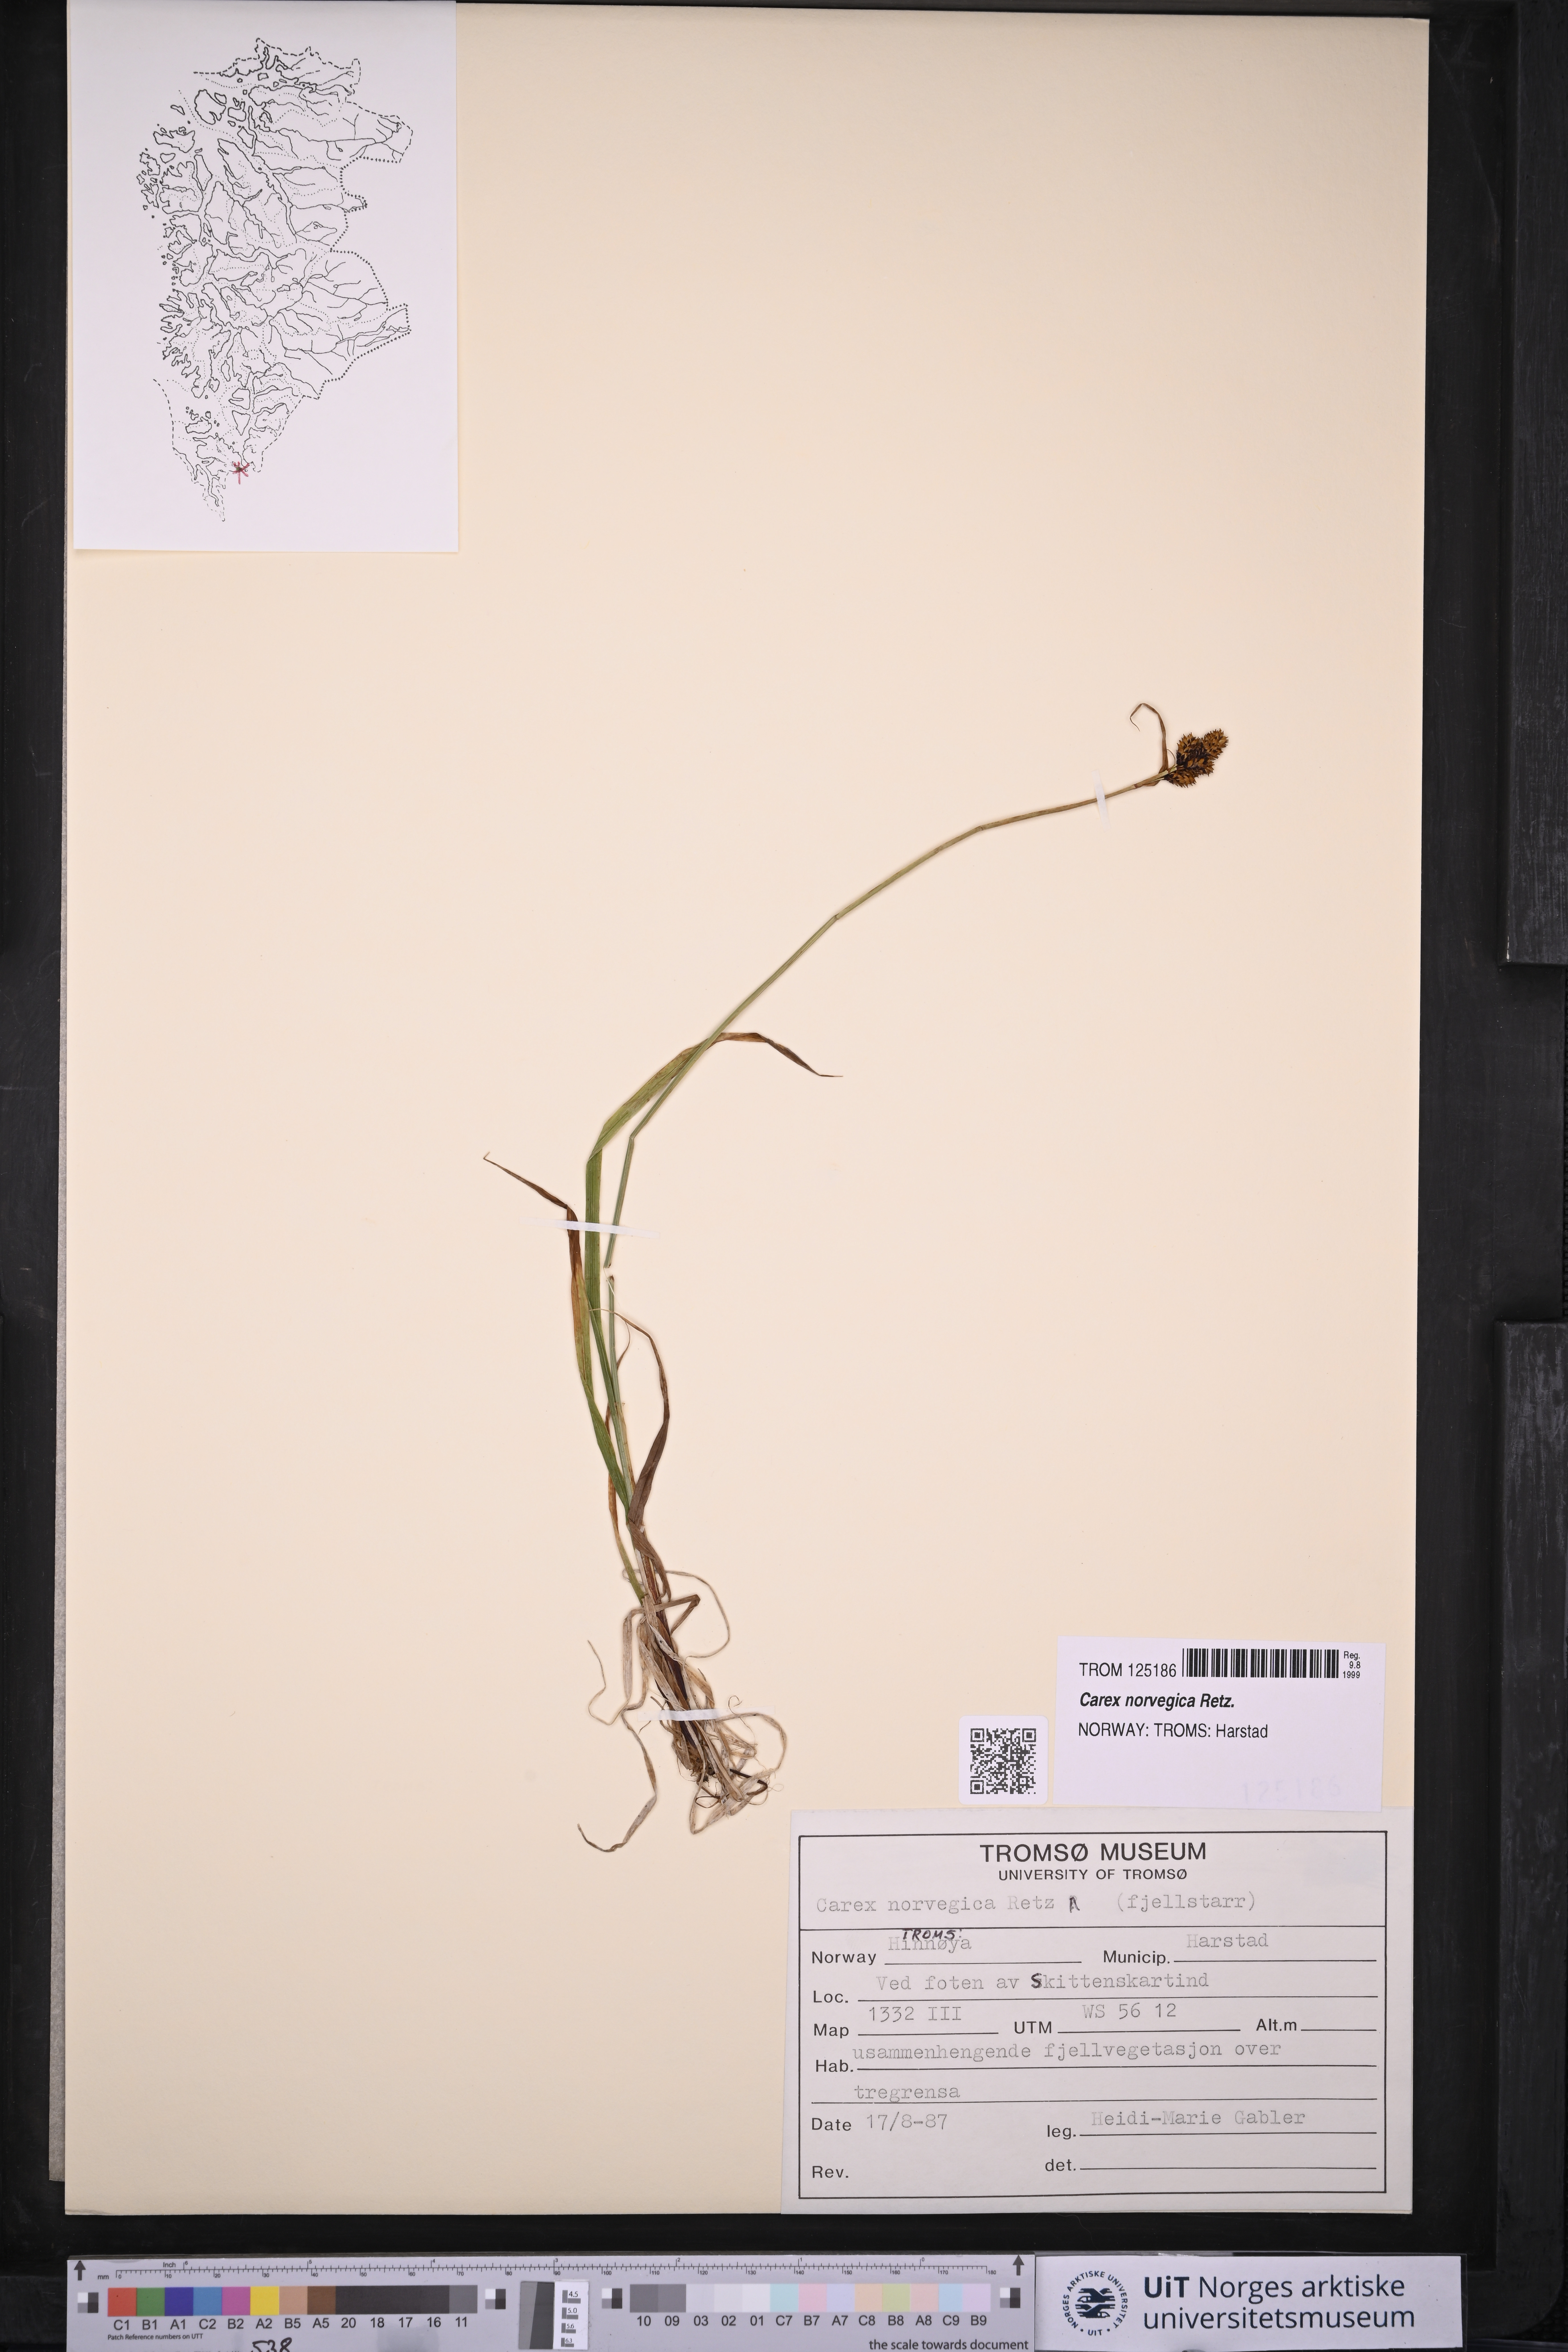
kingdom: Plantae
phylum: Tracheophyta
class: Liliopsida
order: Poales
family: Cyperaceae
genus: Carex
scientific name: Carex norvegica
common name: Close-headed alpine-sedge
